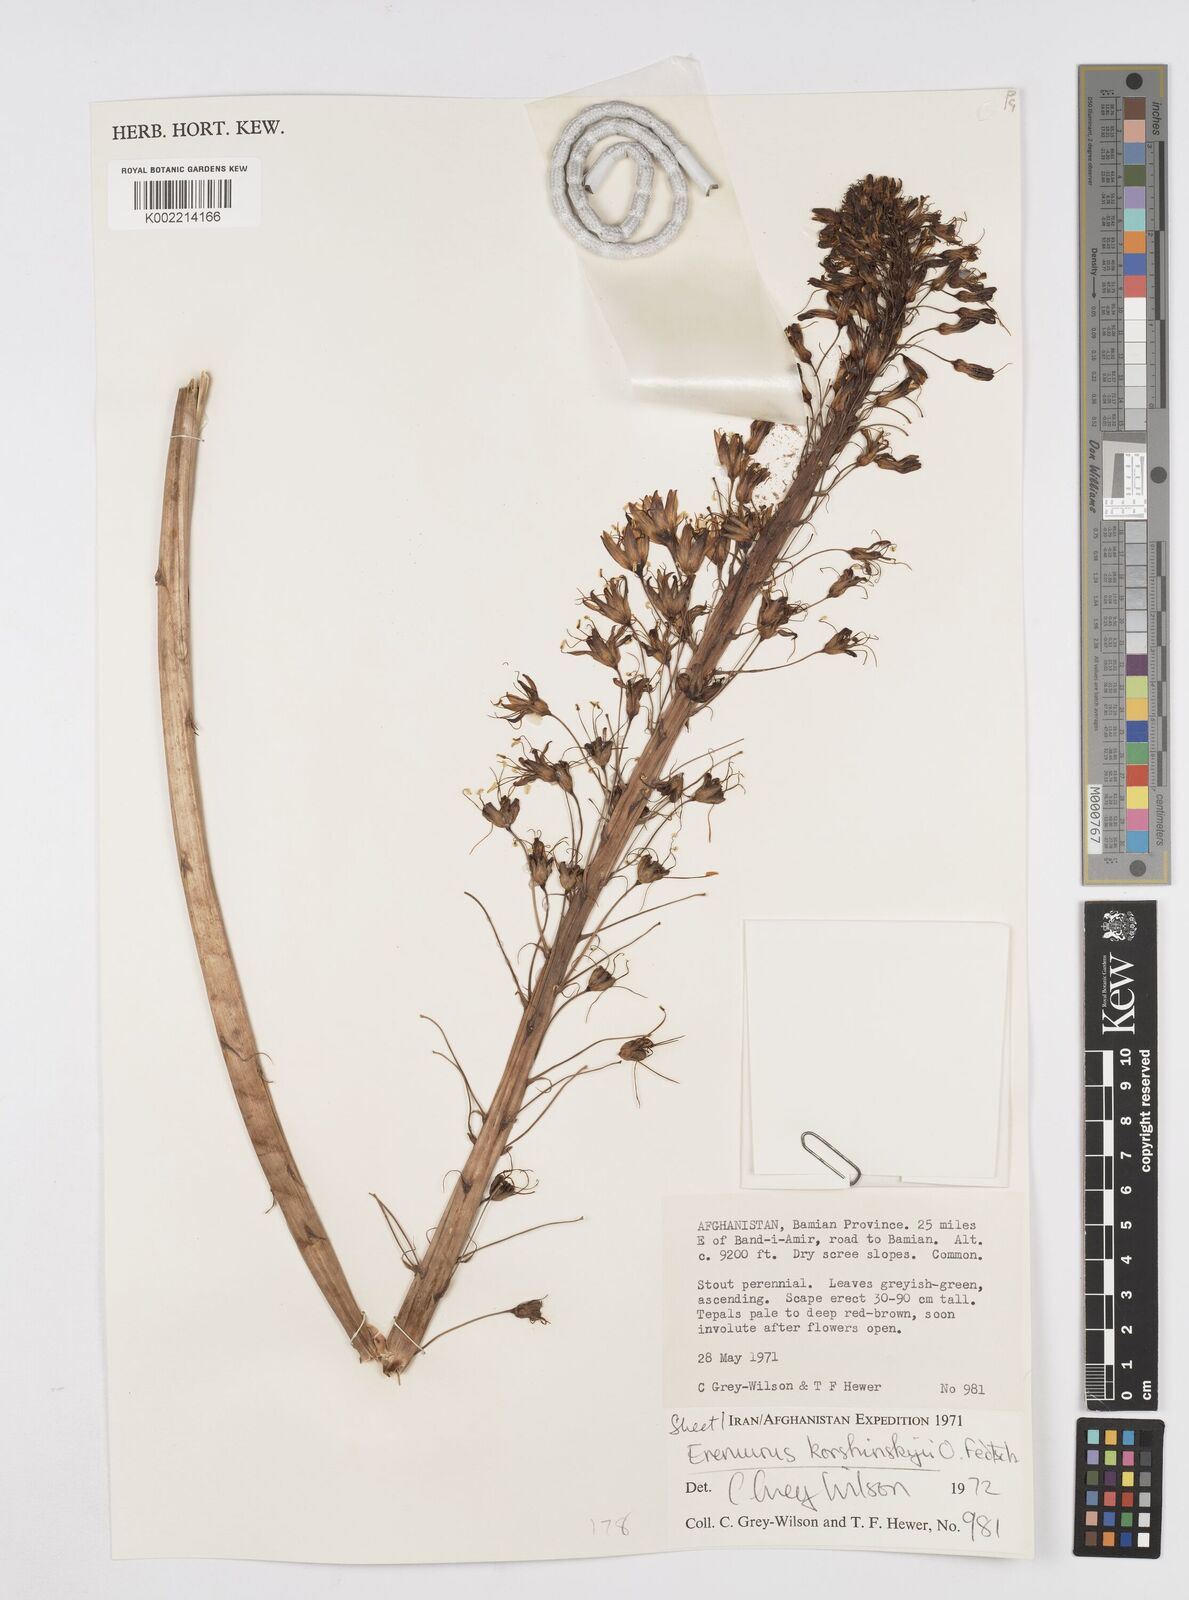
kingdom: Plantae
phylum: Tracheophyta
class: Liliopsida
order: Asparagales
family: Asphodelaceae
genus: Eremurus
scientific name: Eremurus korshinskyi
